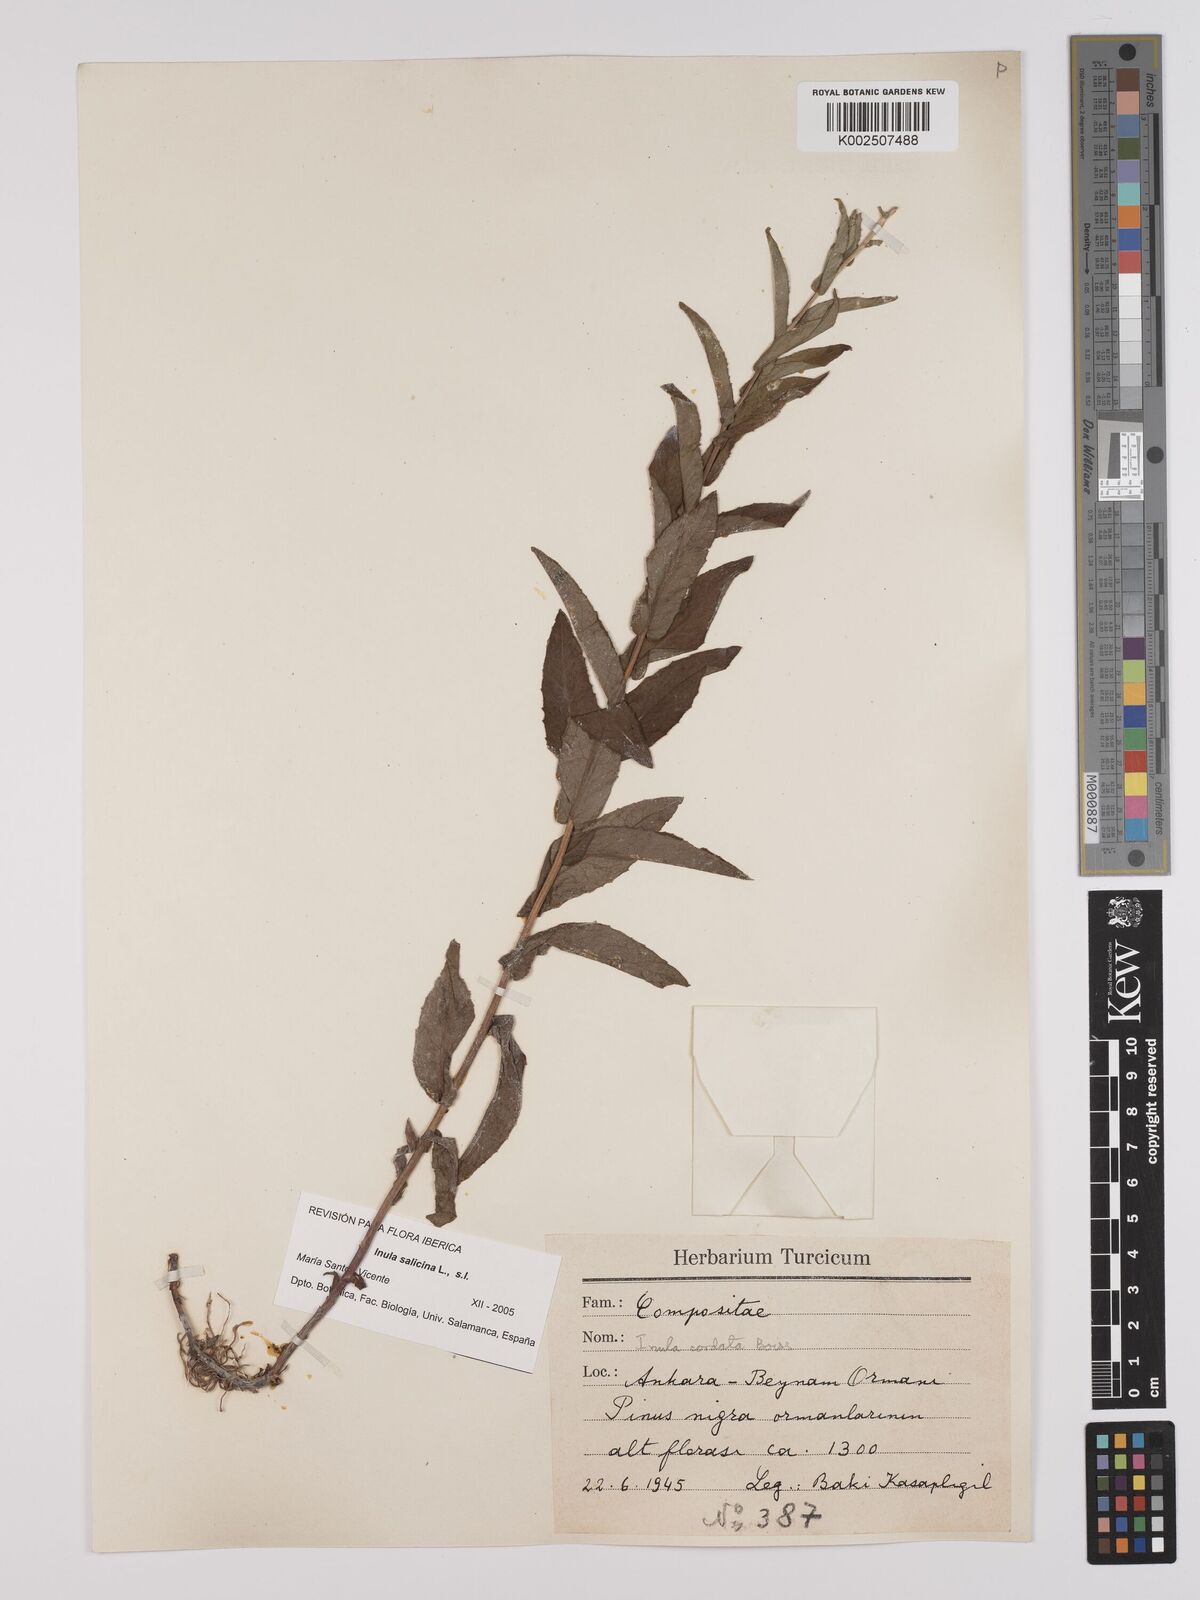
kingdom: Plantae
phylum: Tracheophyta
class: Magnoliopsida
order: Asterales
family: Asteraceae
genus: Pentanema
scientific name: Pentanema salicinum
